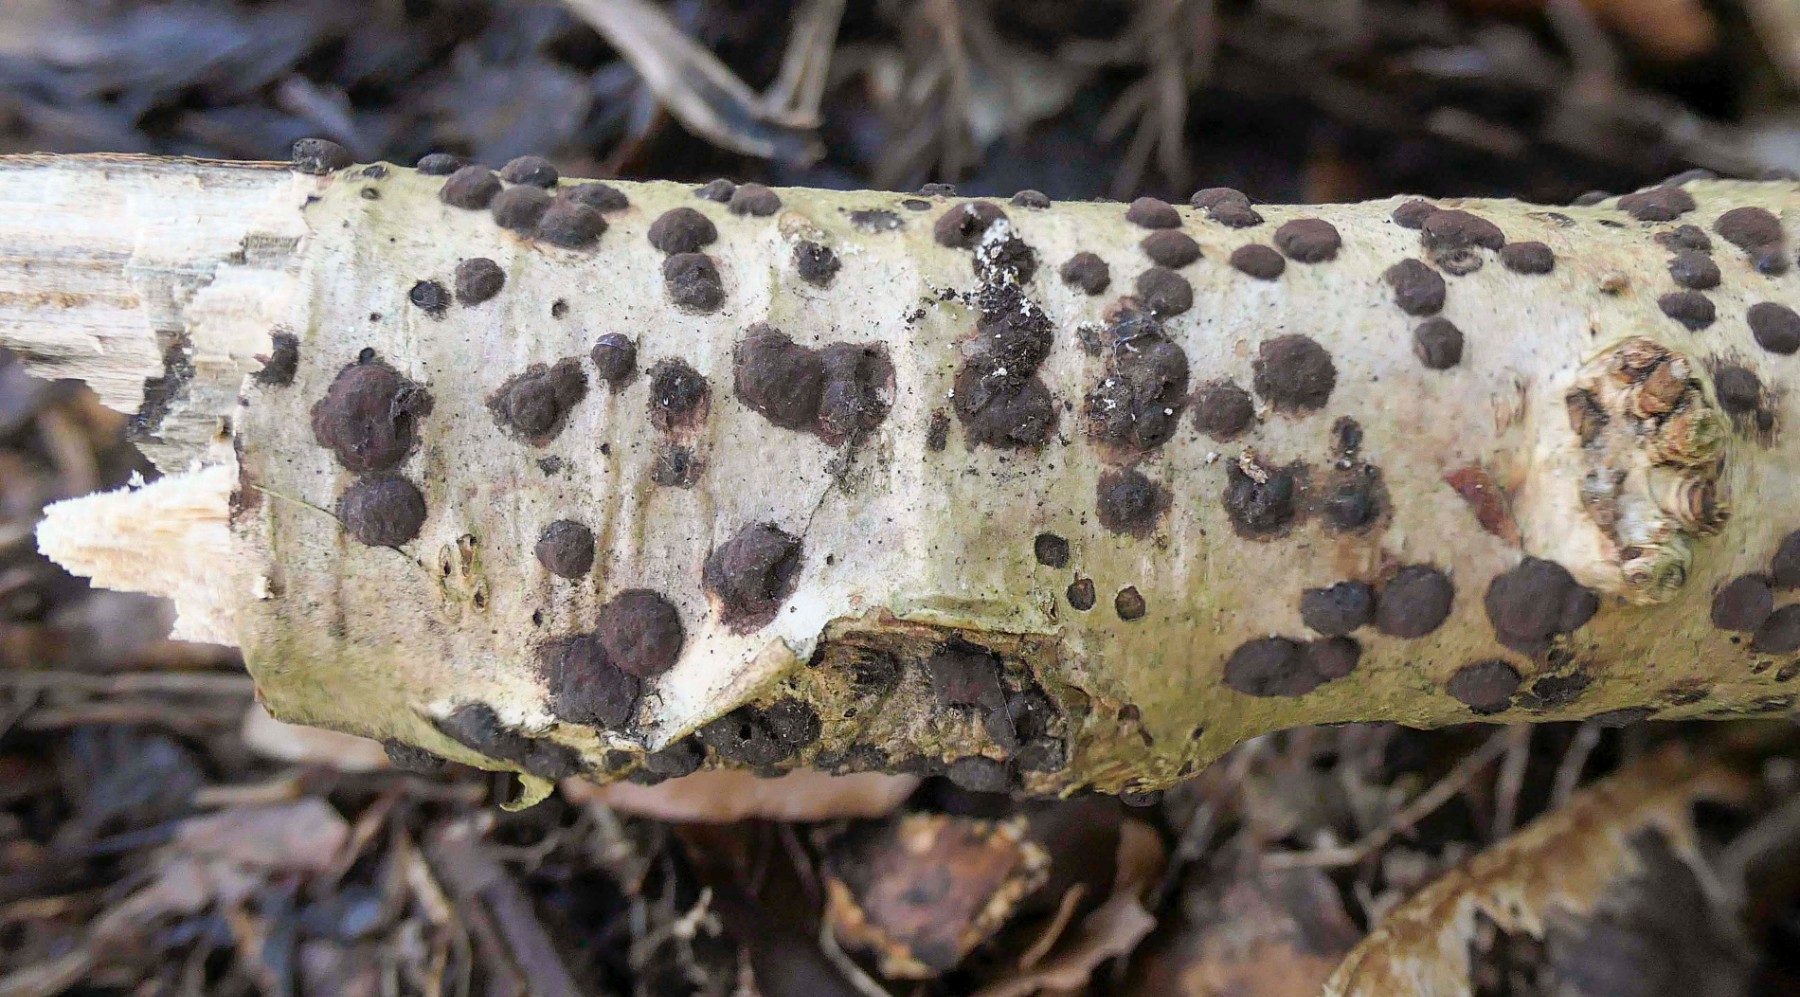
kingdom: Fungi
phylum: Ascomycota
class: Sordariomycetes
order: Xylariales
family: Hypoxylaceae
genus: Hypoxylon
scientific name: Hypoxylon fuscum
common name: kegleformet kulbær
